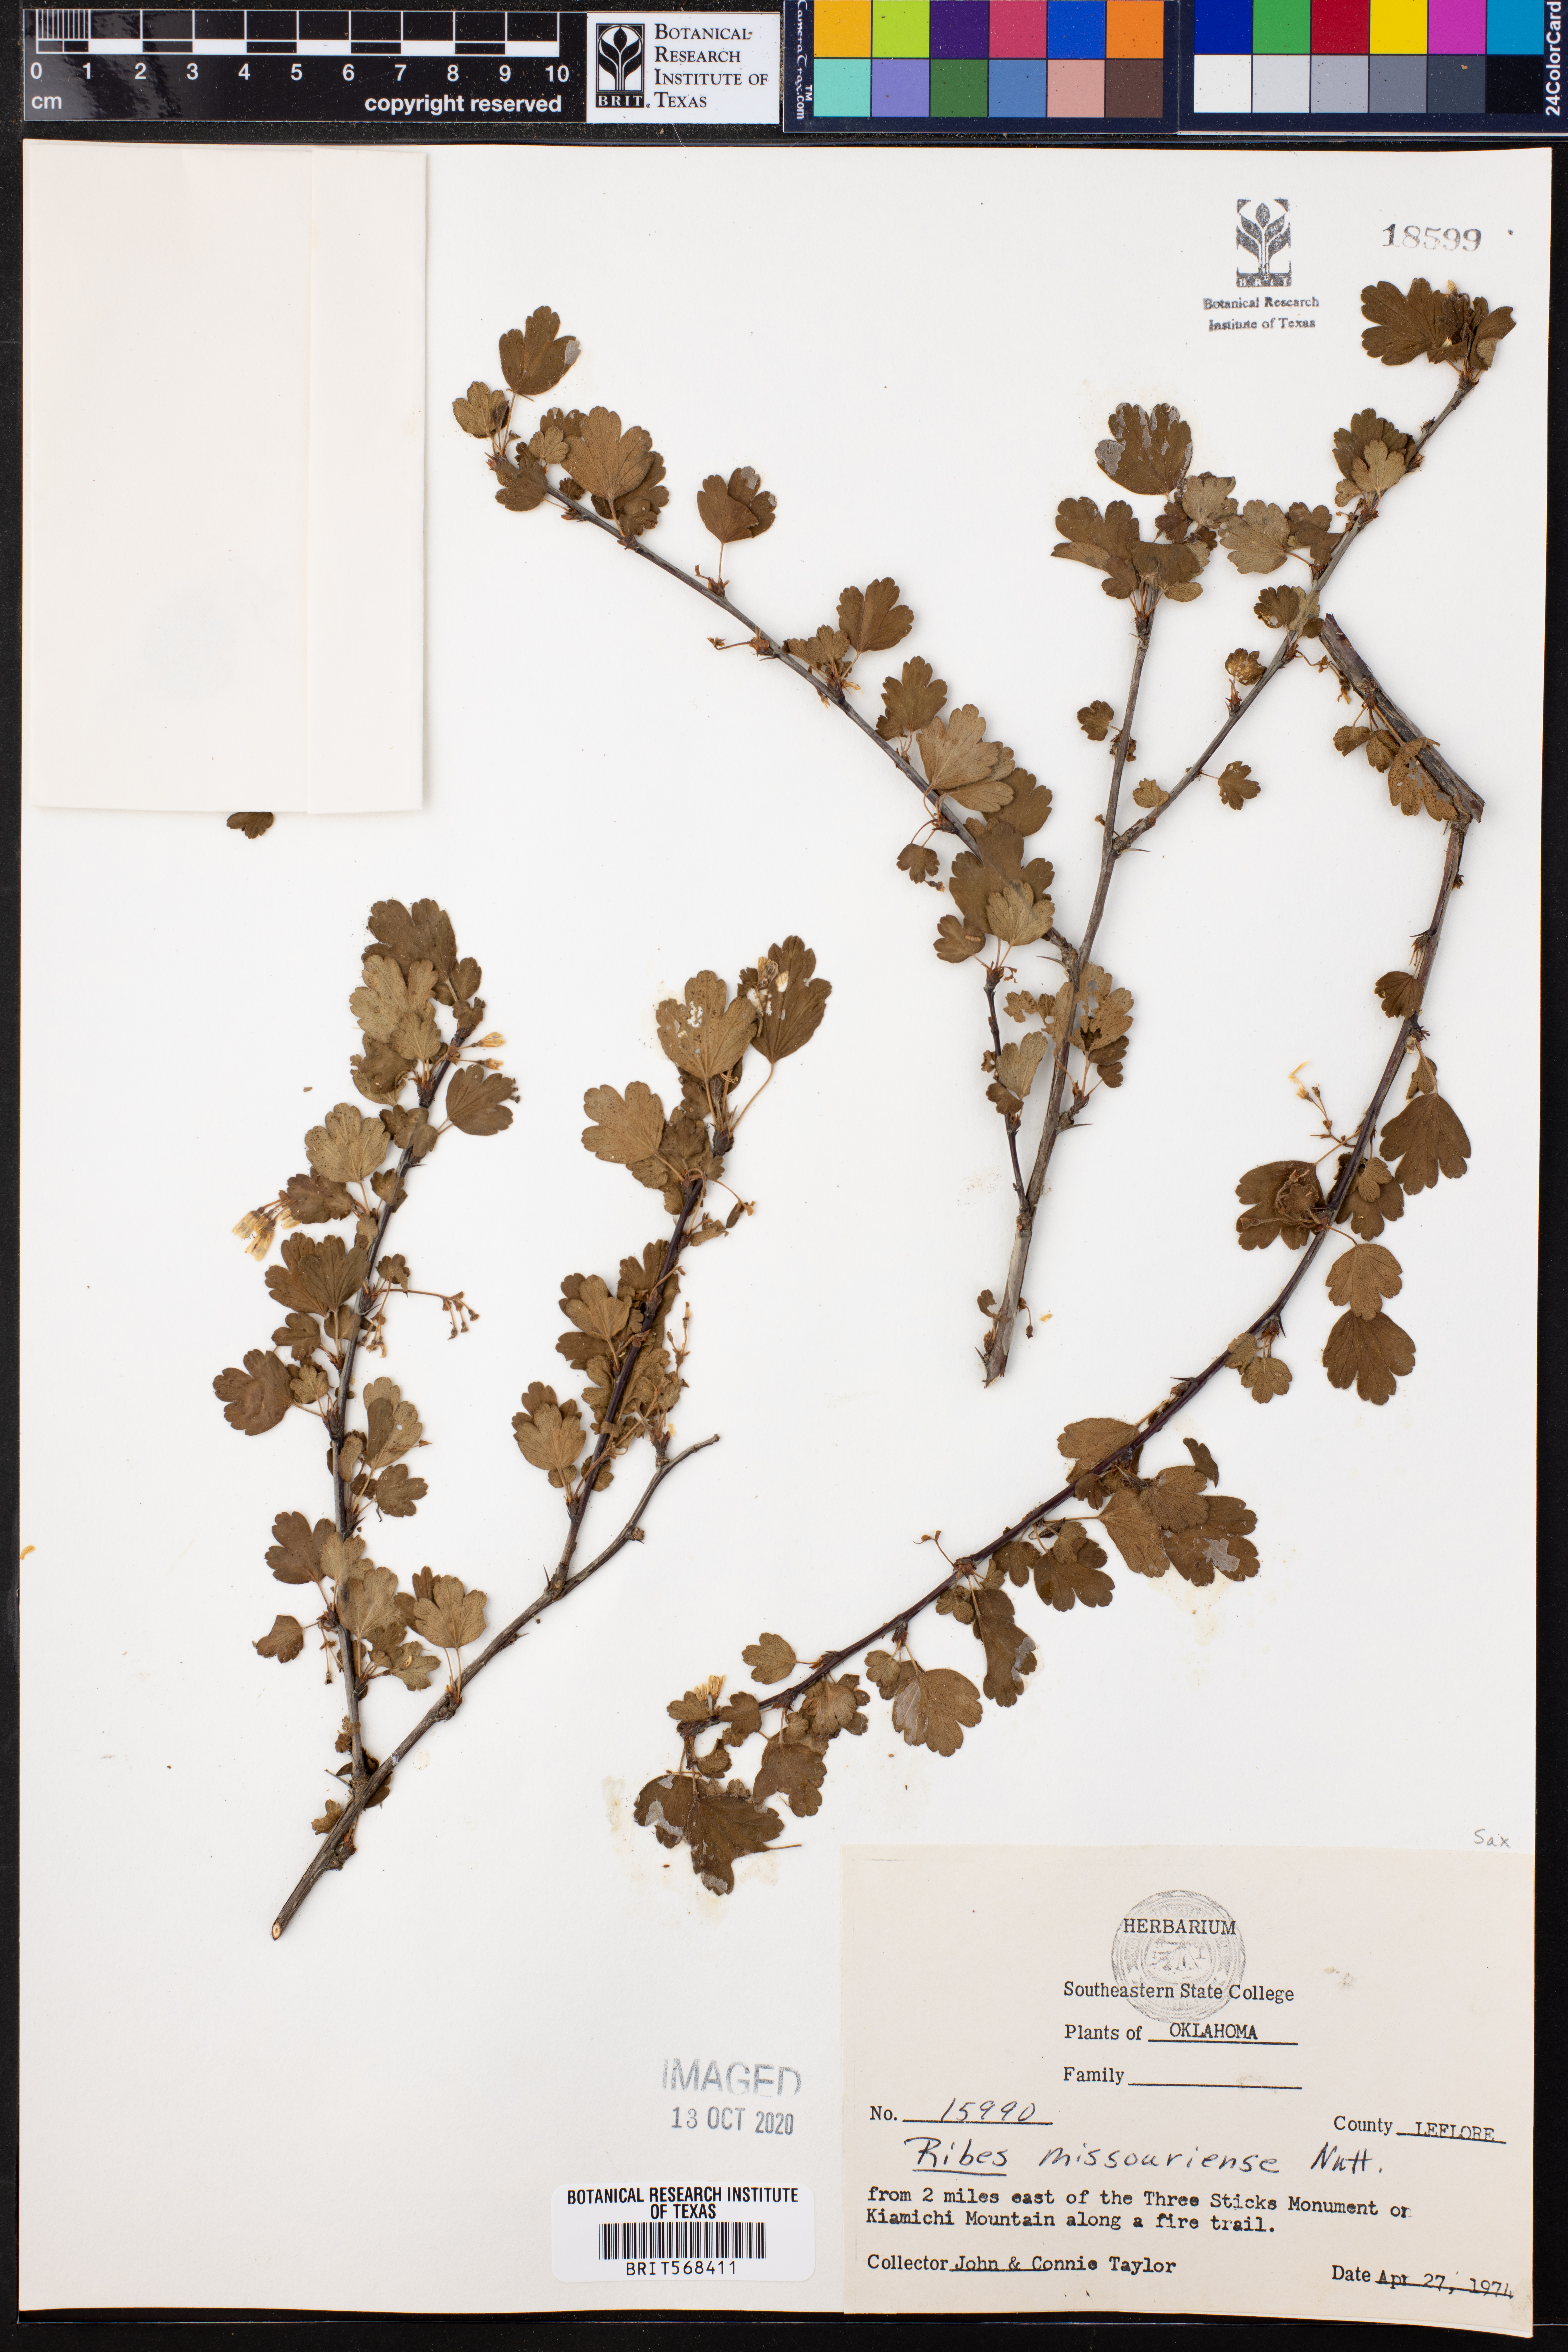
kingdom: Plantae
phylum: Tracheophyta
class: Magnoliopsida
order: Saxifragales
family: Grossulariaceae
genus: Ribes
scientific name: Ribes missouriense
